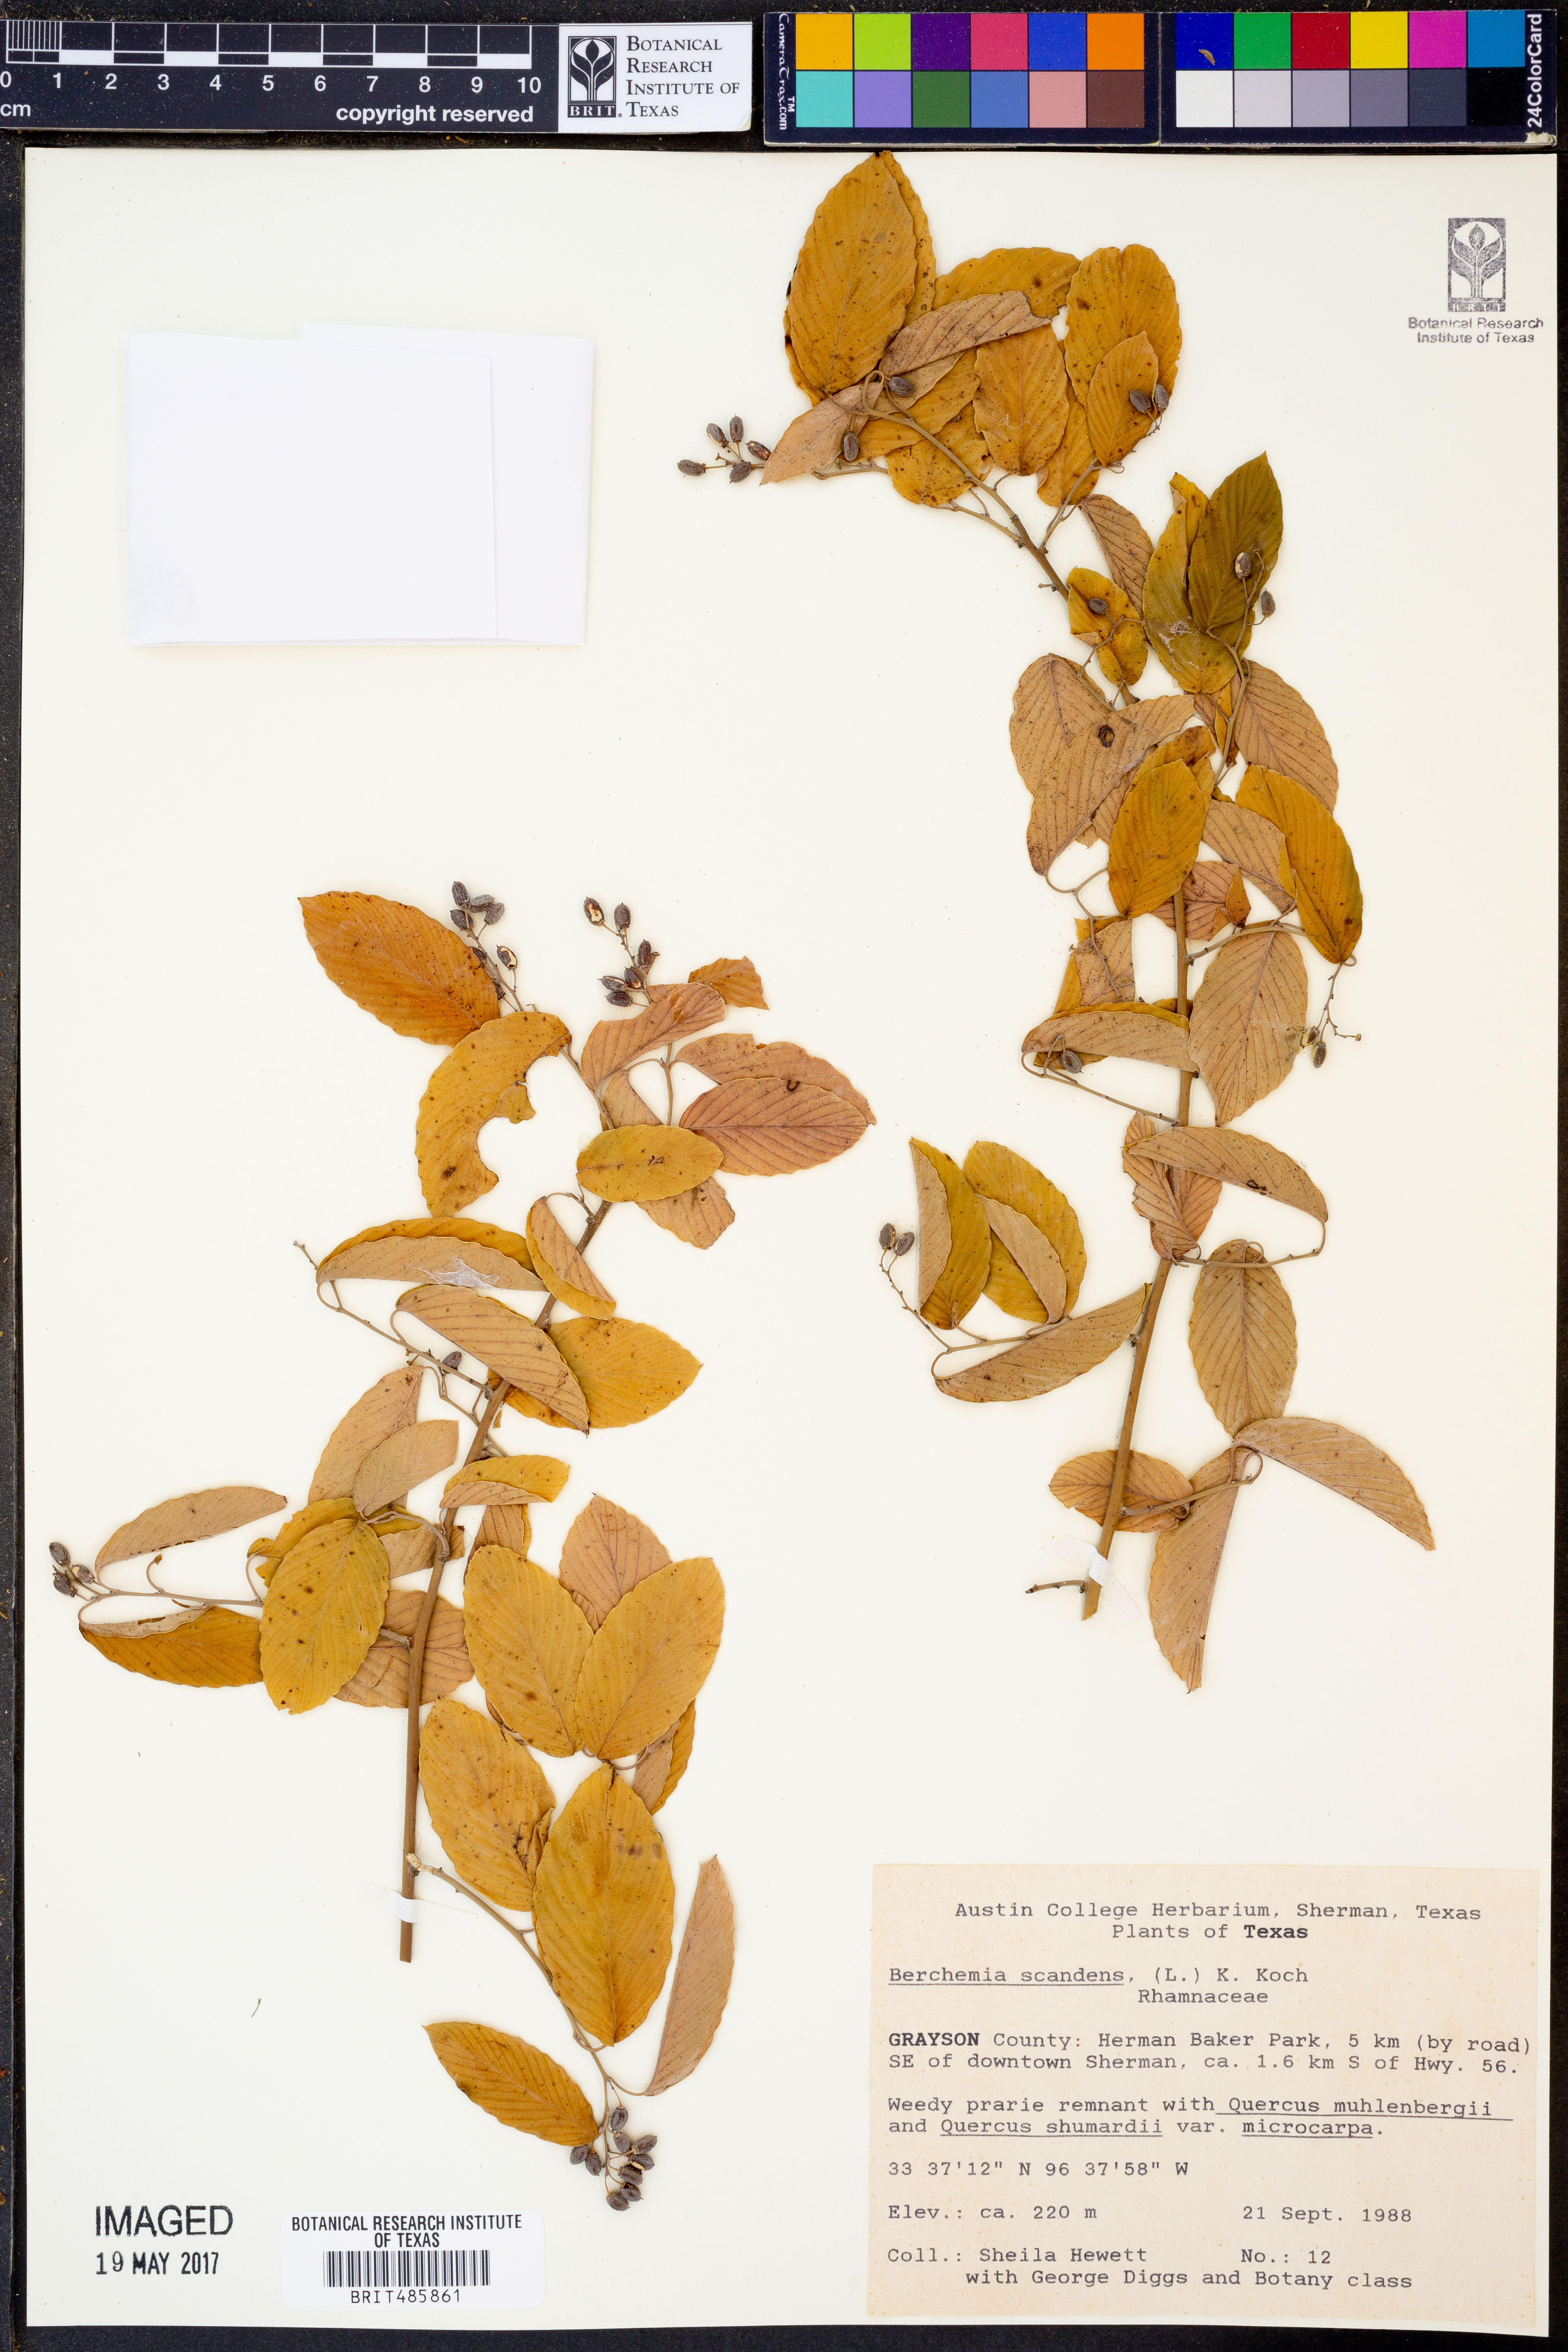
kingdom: Plantae
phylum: Tracheophyta
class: Magnoliopsida
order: Rosales
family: Rhamnaceae
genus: Berchemia
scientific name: Berchemia scandens
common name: Supplejack
